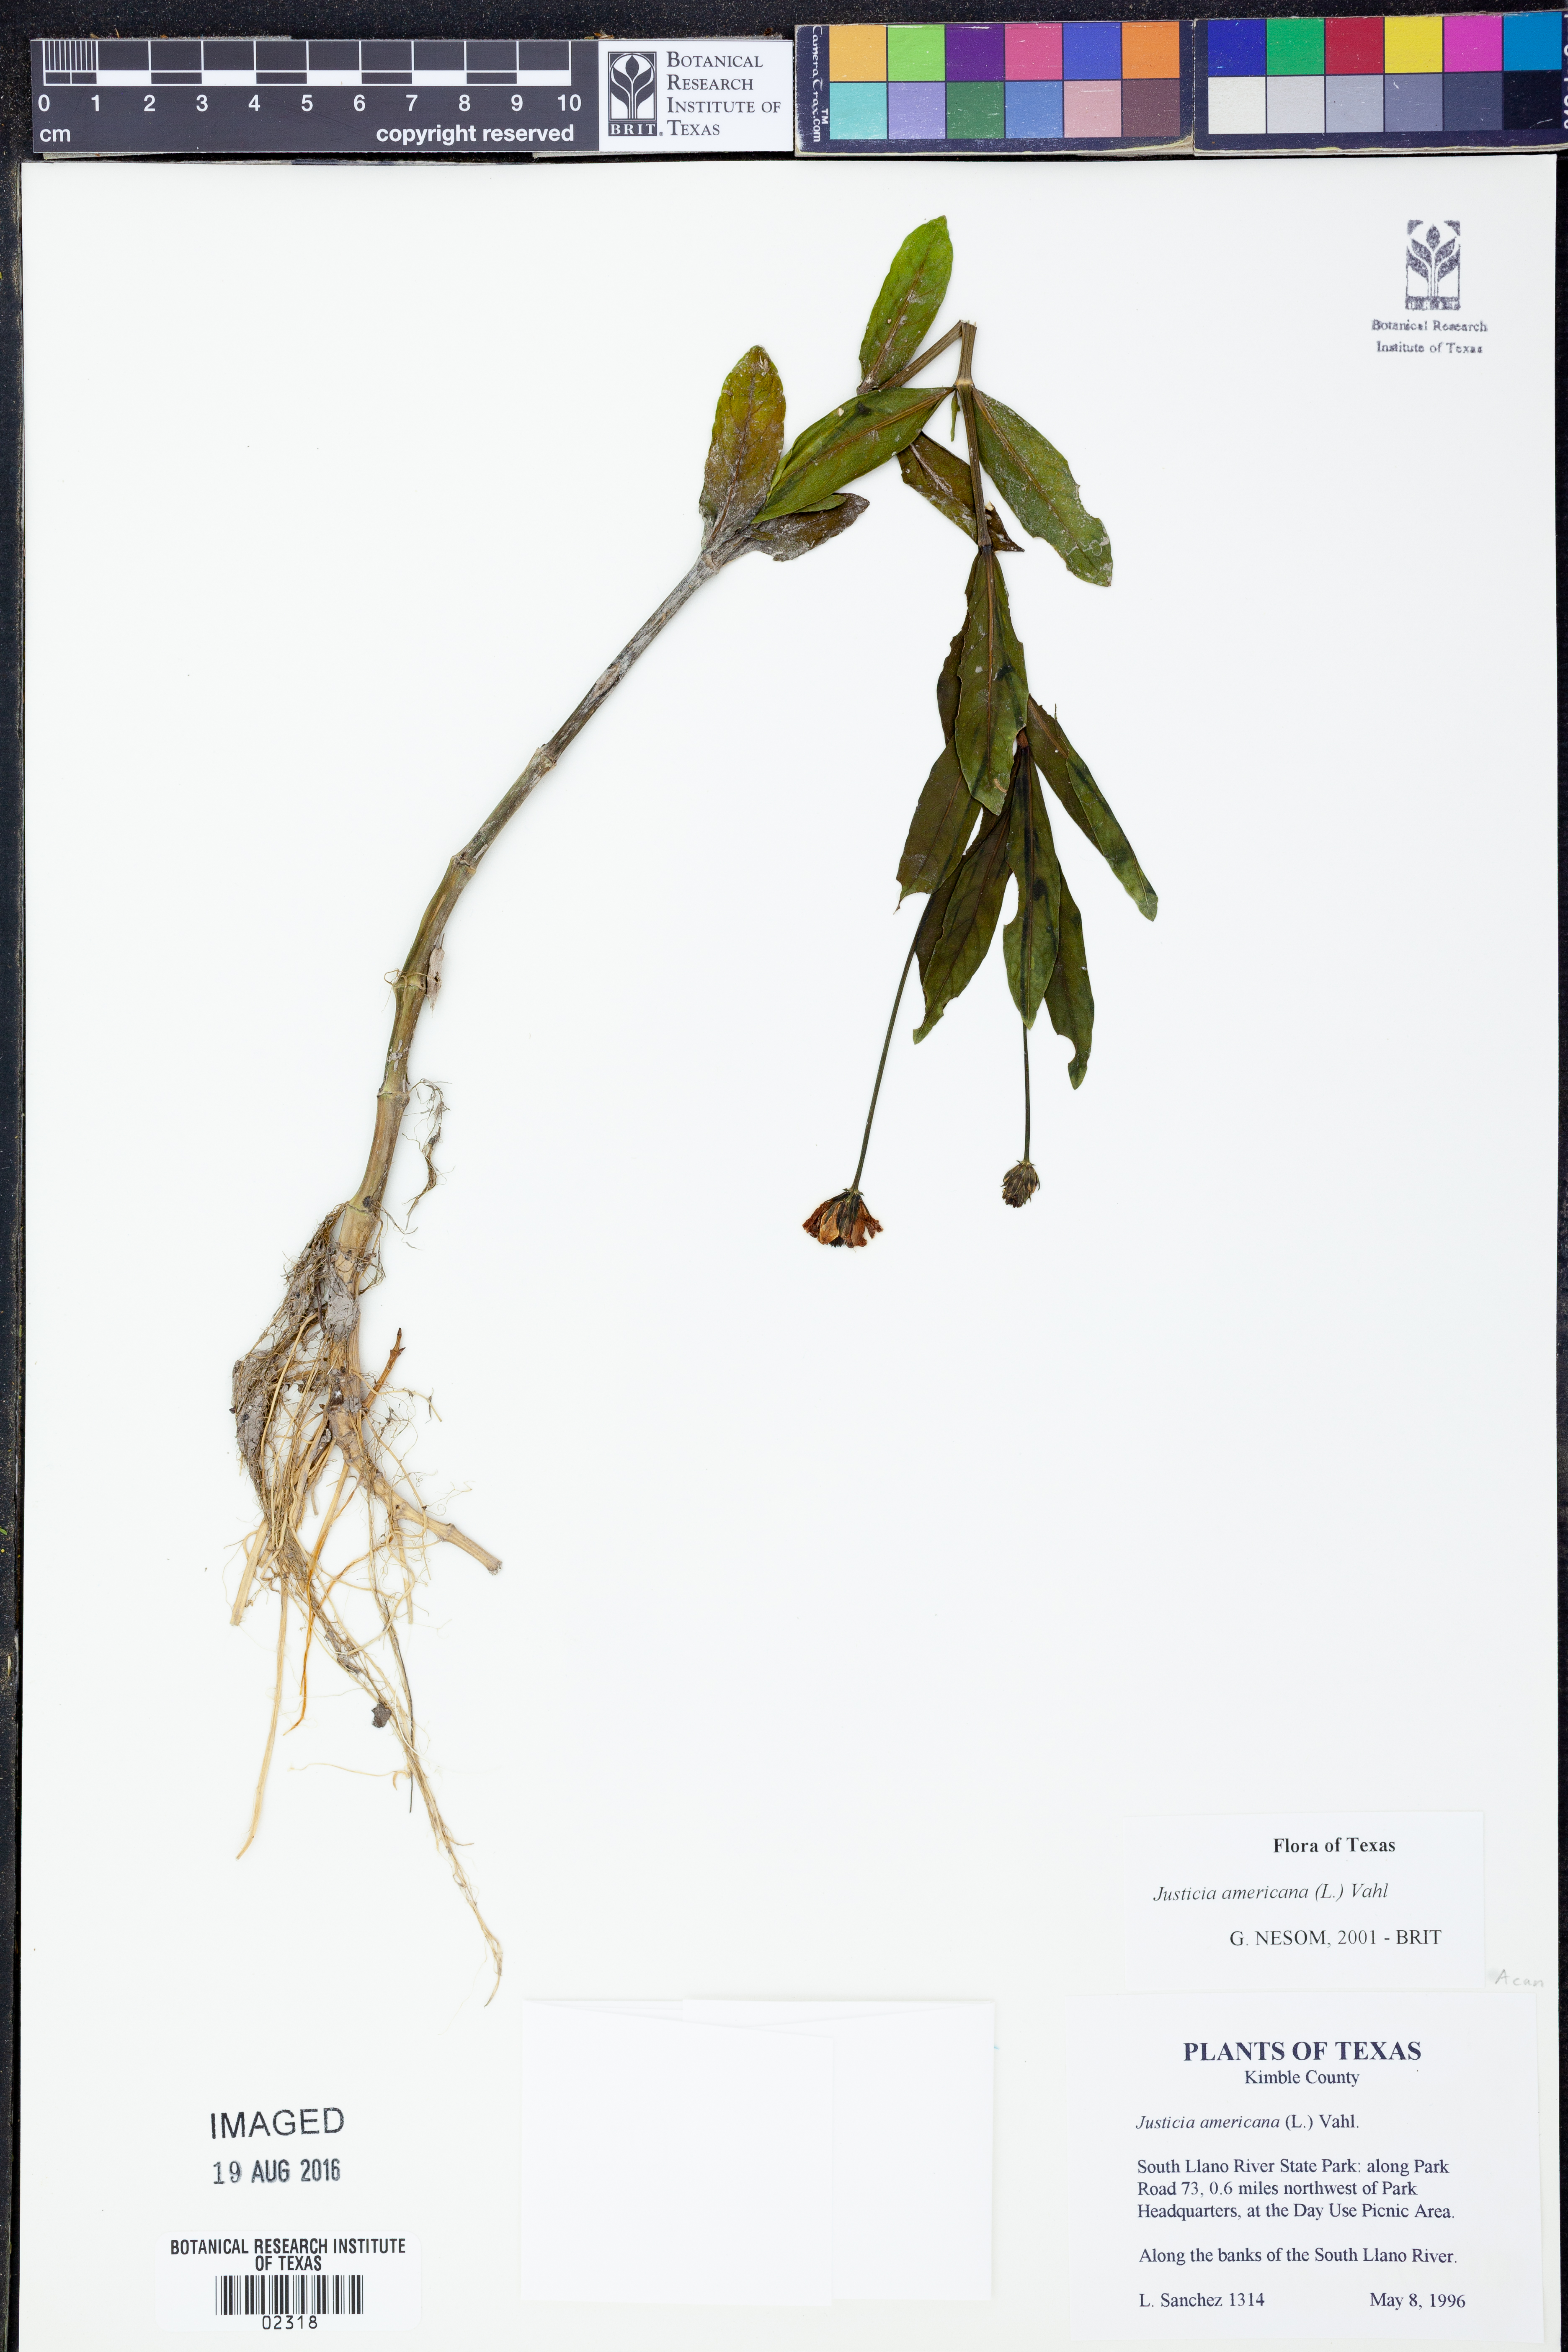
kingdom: Plantae
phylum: Tracheophyta
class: Magnoliopsida
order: Lamiales
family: Acanthaceae
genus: Dianthera
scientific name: Dianthera americana
